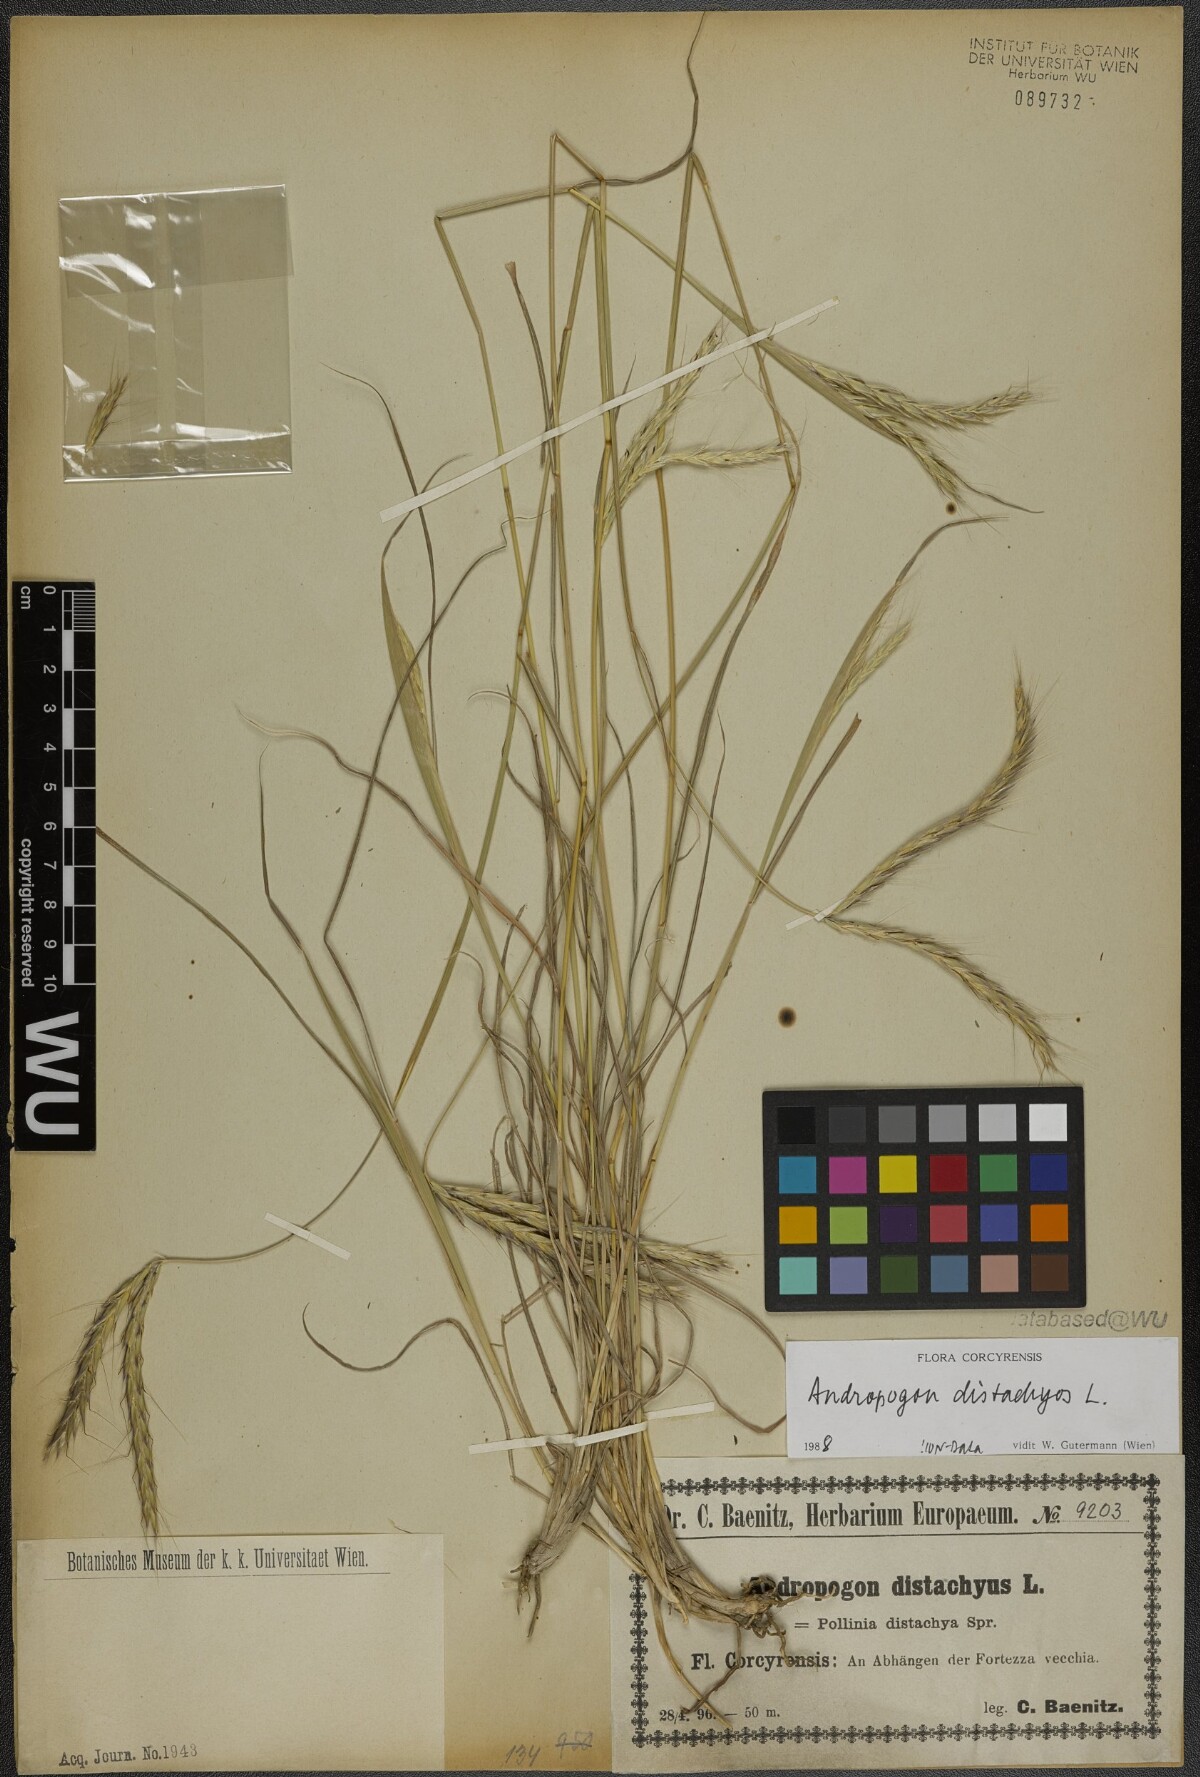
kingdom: Plantae
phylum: Tracheophyta
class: Liliopsida
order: Poales
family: Poaceae
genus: Andropogon
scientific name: Andropogon distachyos
